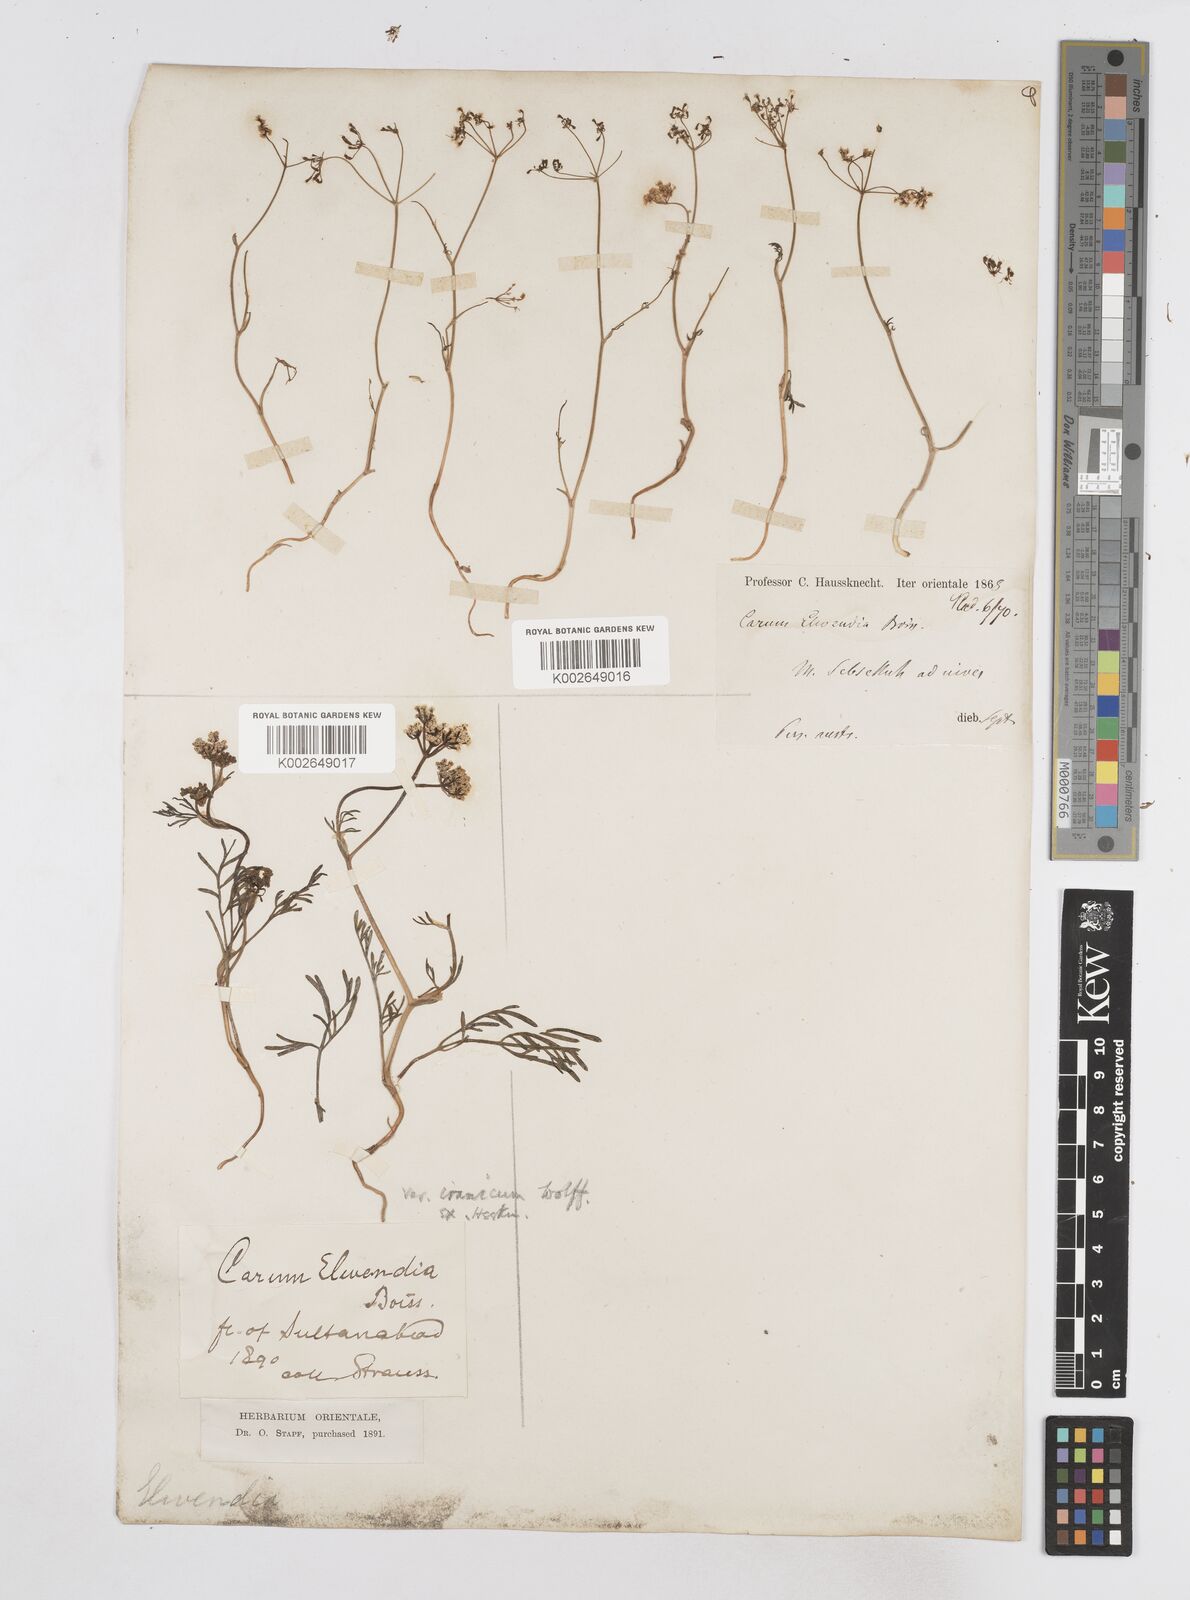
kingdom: Plantae
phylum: Tracheophyta
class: Magnoliopsida
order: Apiales
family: Apiaceae
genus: Elwendia
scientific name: Elwendia caroides
